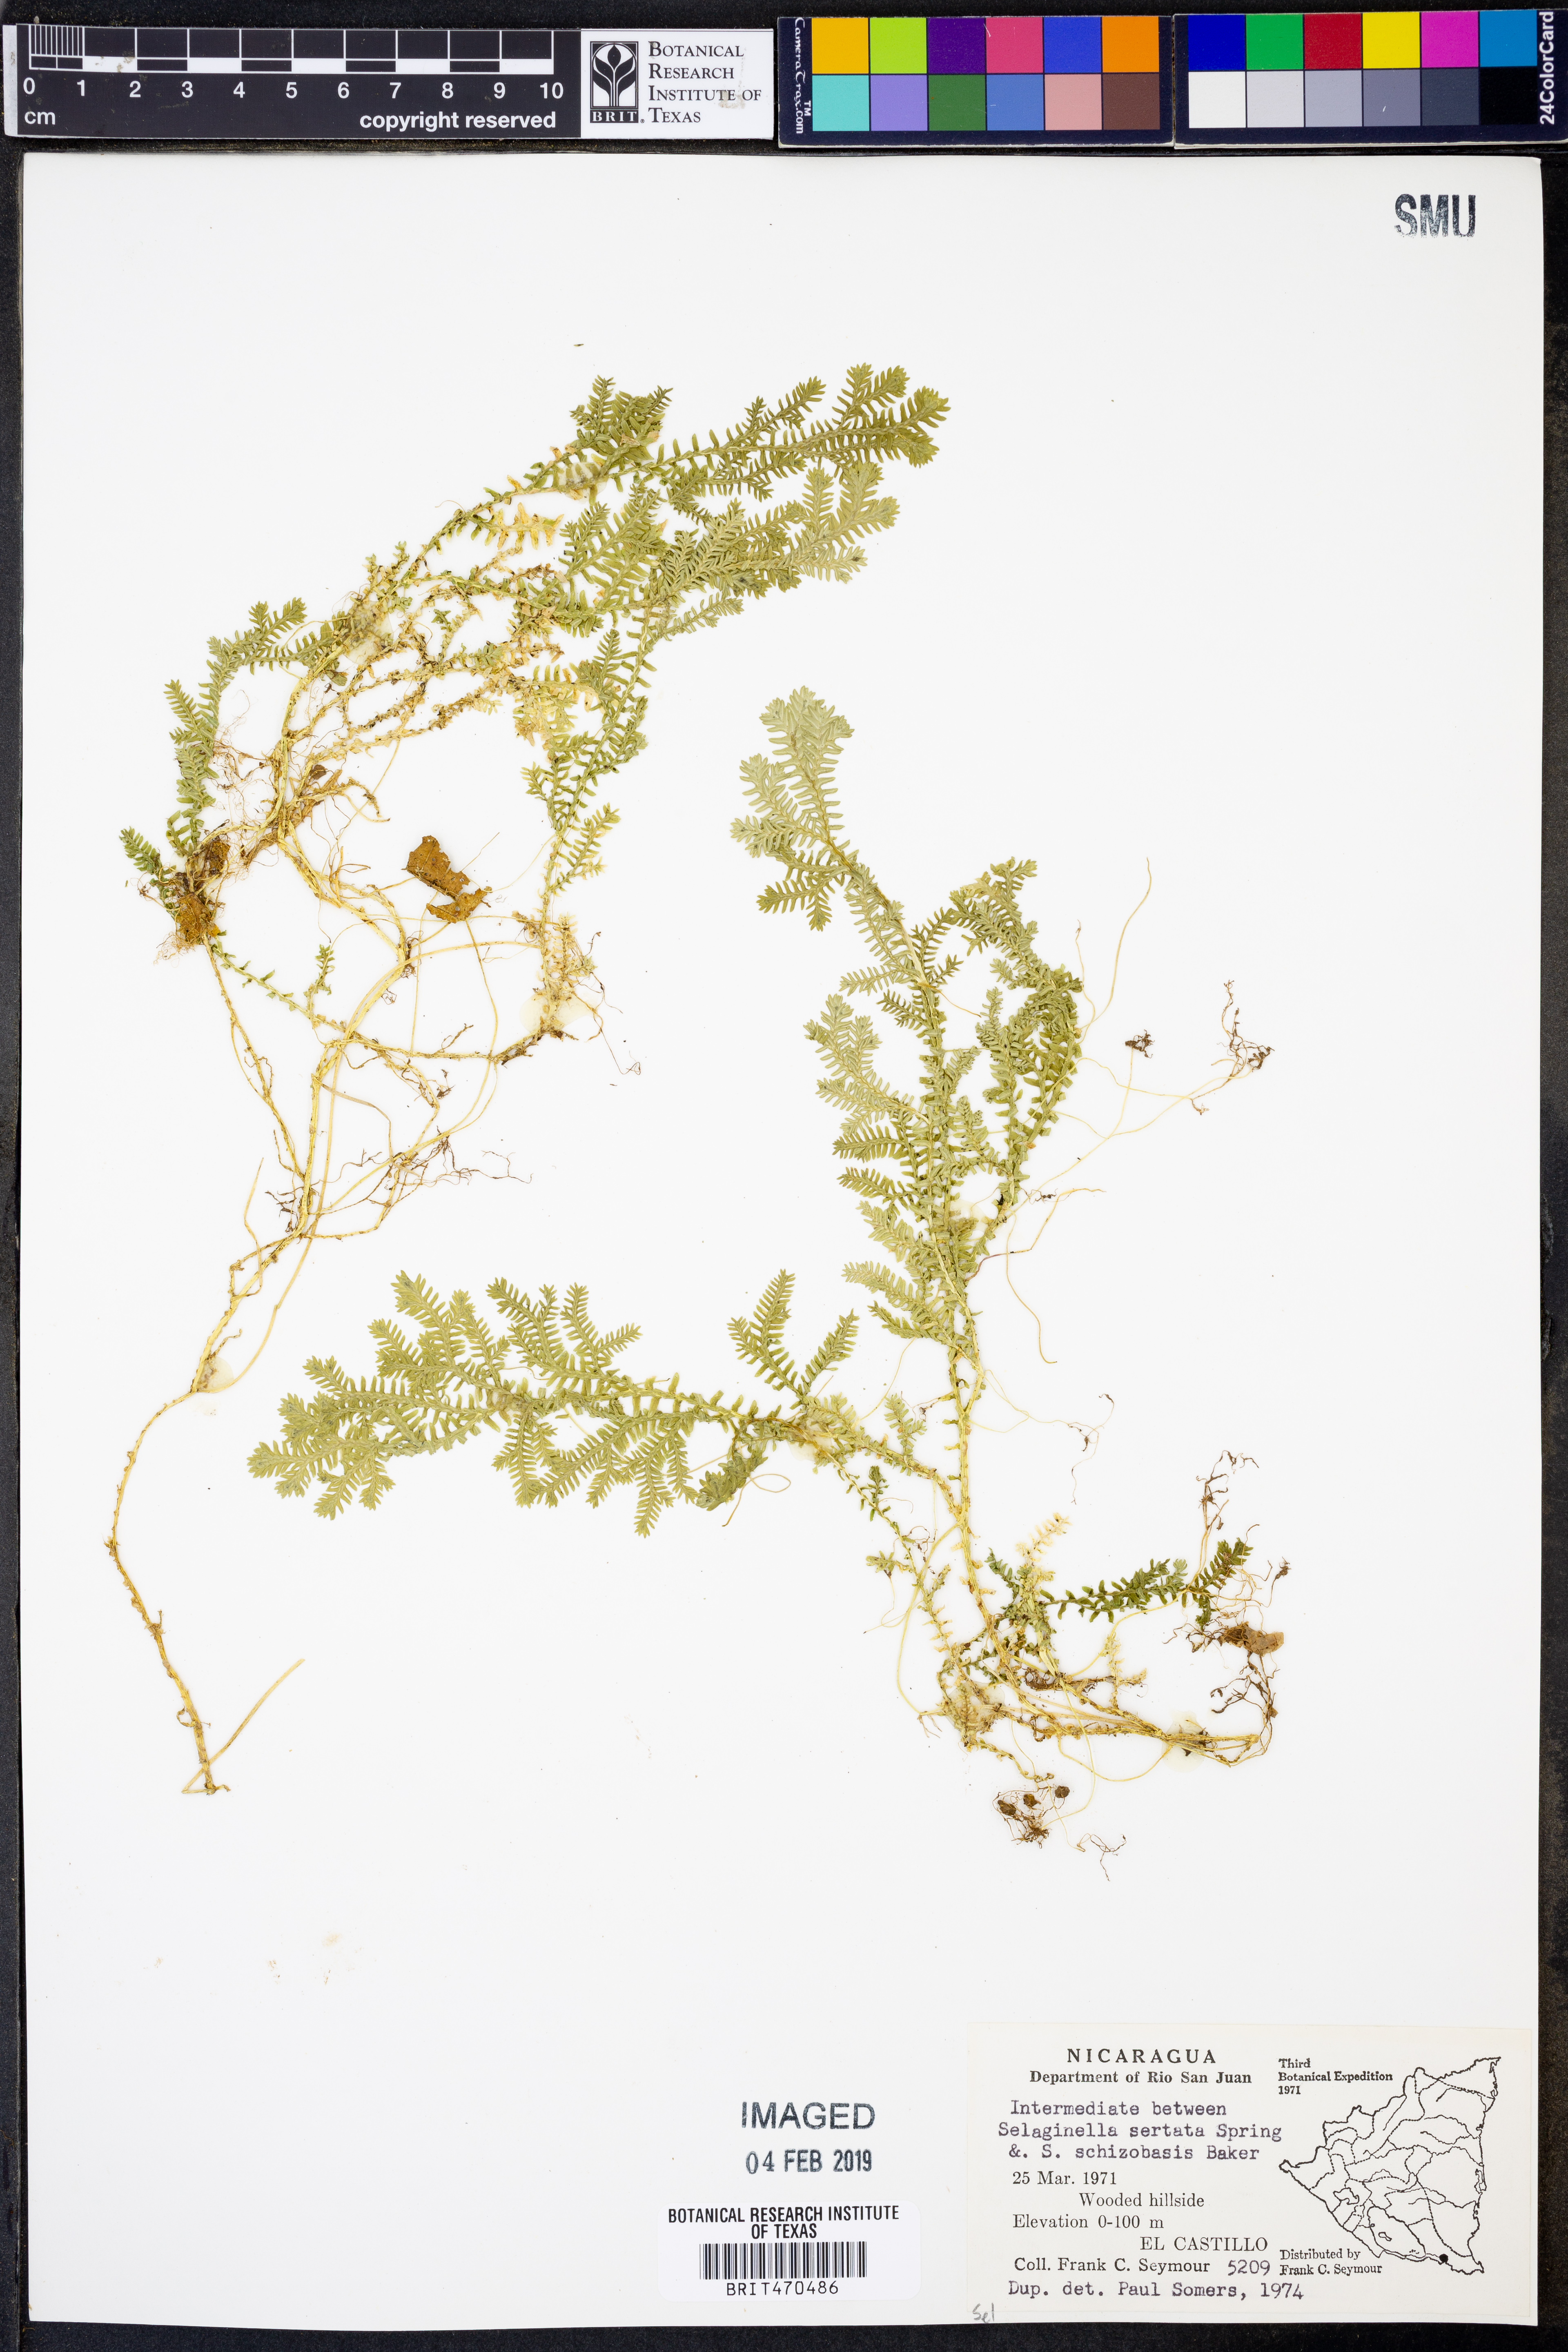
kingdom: Plantae
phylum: Tracheophyta
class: Lycopodiopsida
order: Selaginellales
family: Selaginellaceae
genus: Selaginella
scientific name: Selaginella sertata
